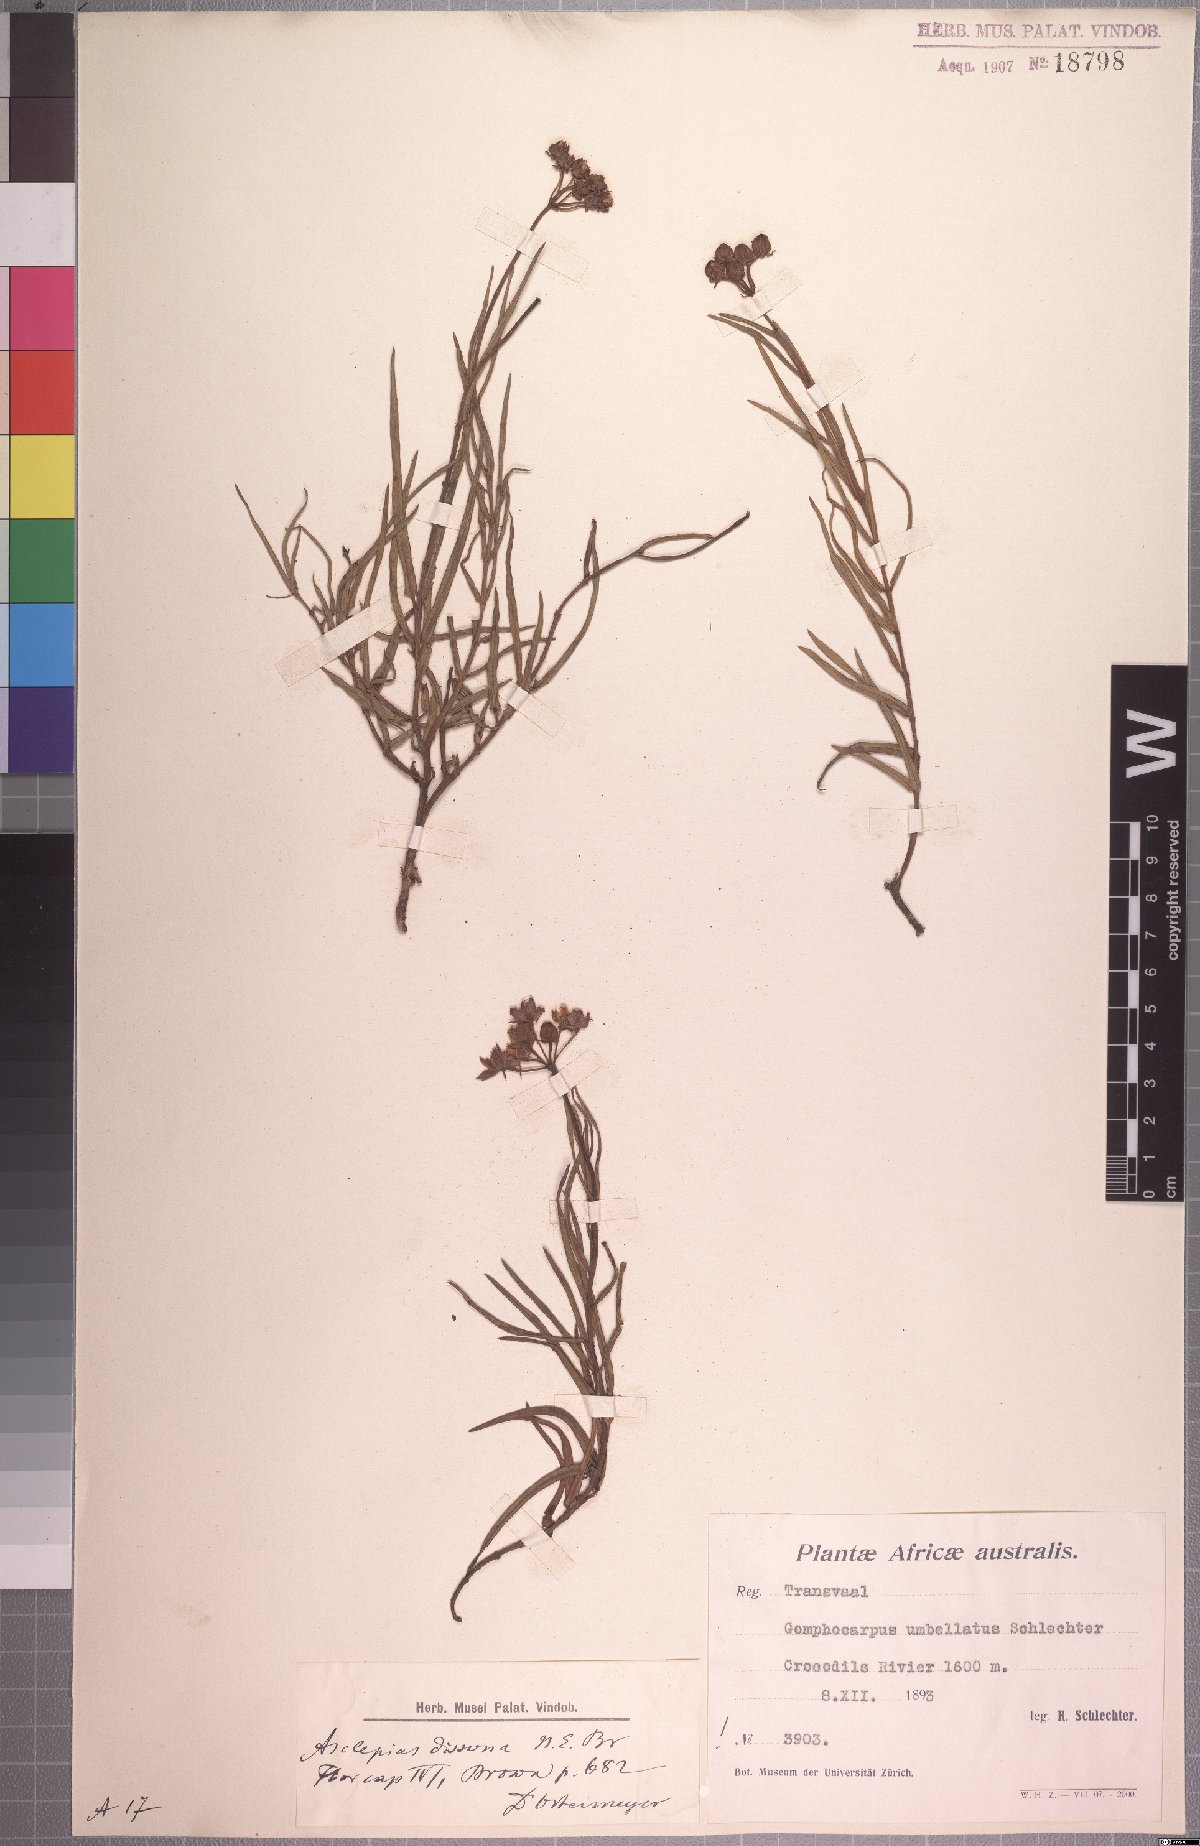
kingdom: Plantae
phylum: Tracheophyta
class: Magnoliopsida
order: Gentianales
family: Apocynaceae
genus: Asclepias
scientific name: Asclepias dissona
